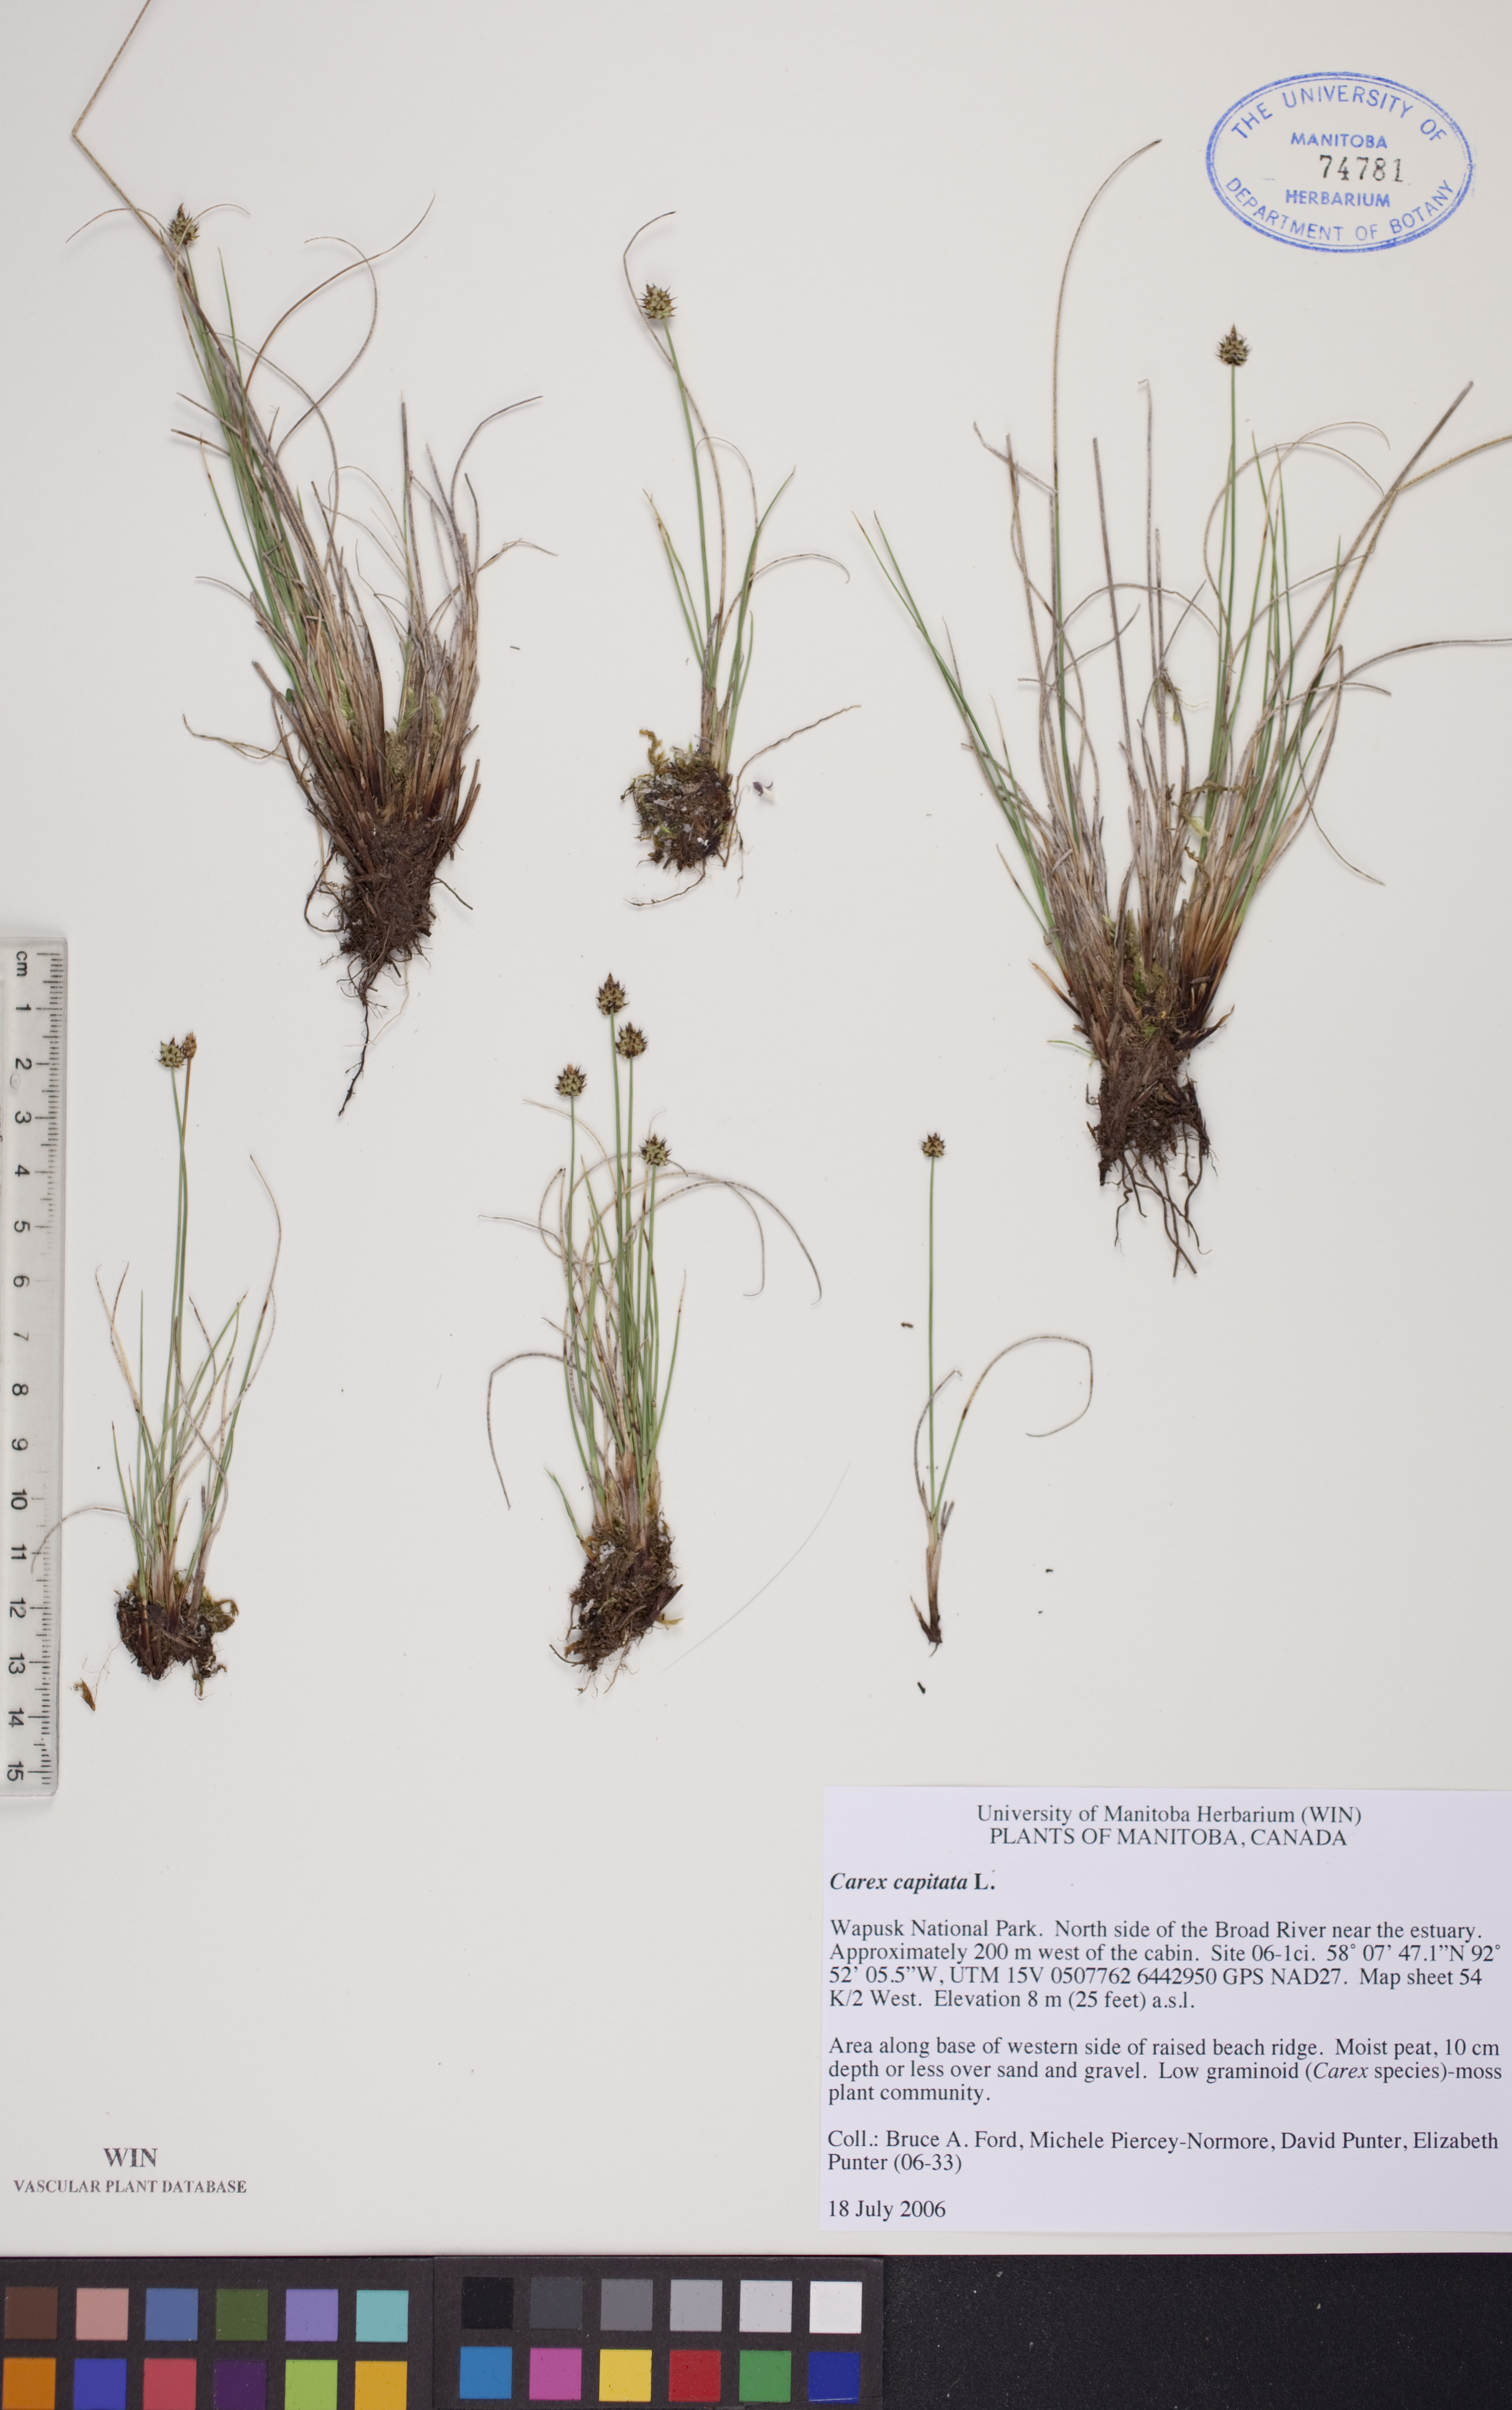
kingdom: Plantae
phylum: Tracheophyta
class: Liliopsida
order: Poales
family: Cyperaceae
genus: Carex
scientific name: Carex capitata
